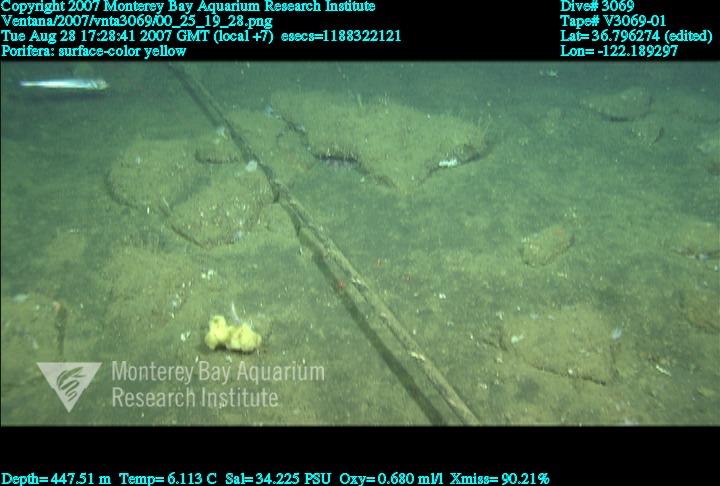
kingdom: Animalia
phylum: Porifera
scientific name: Porifera
